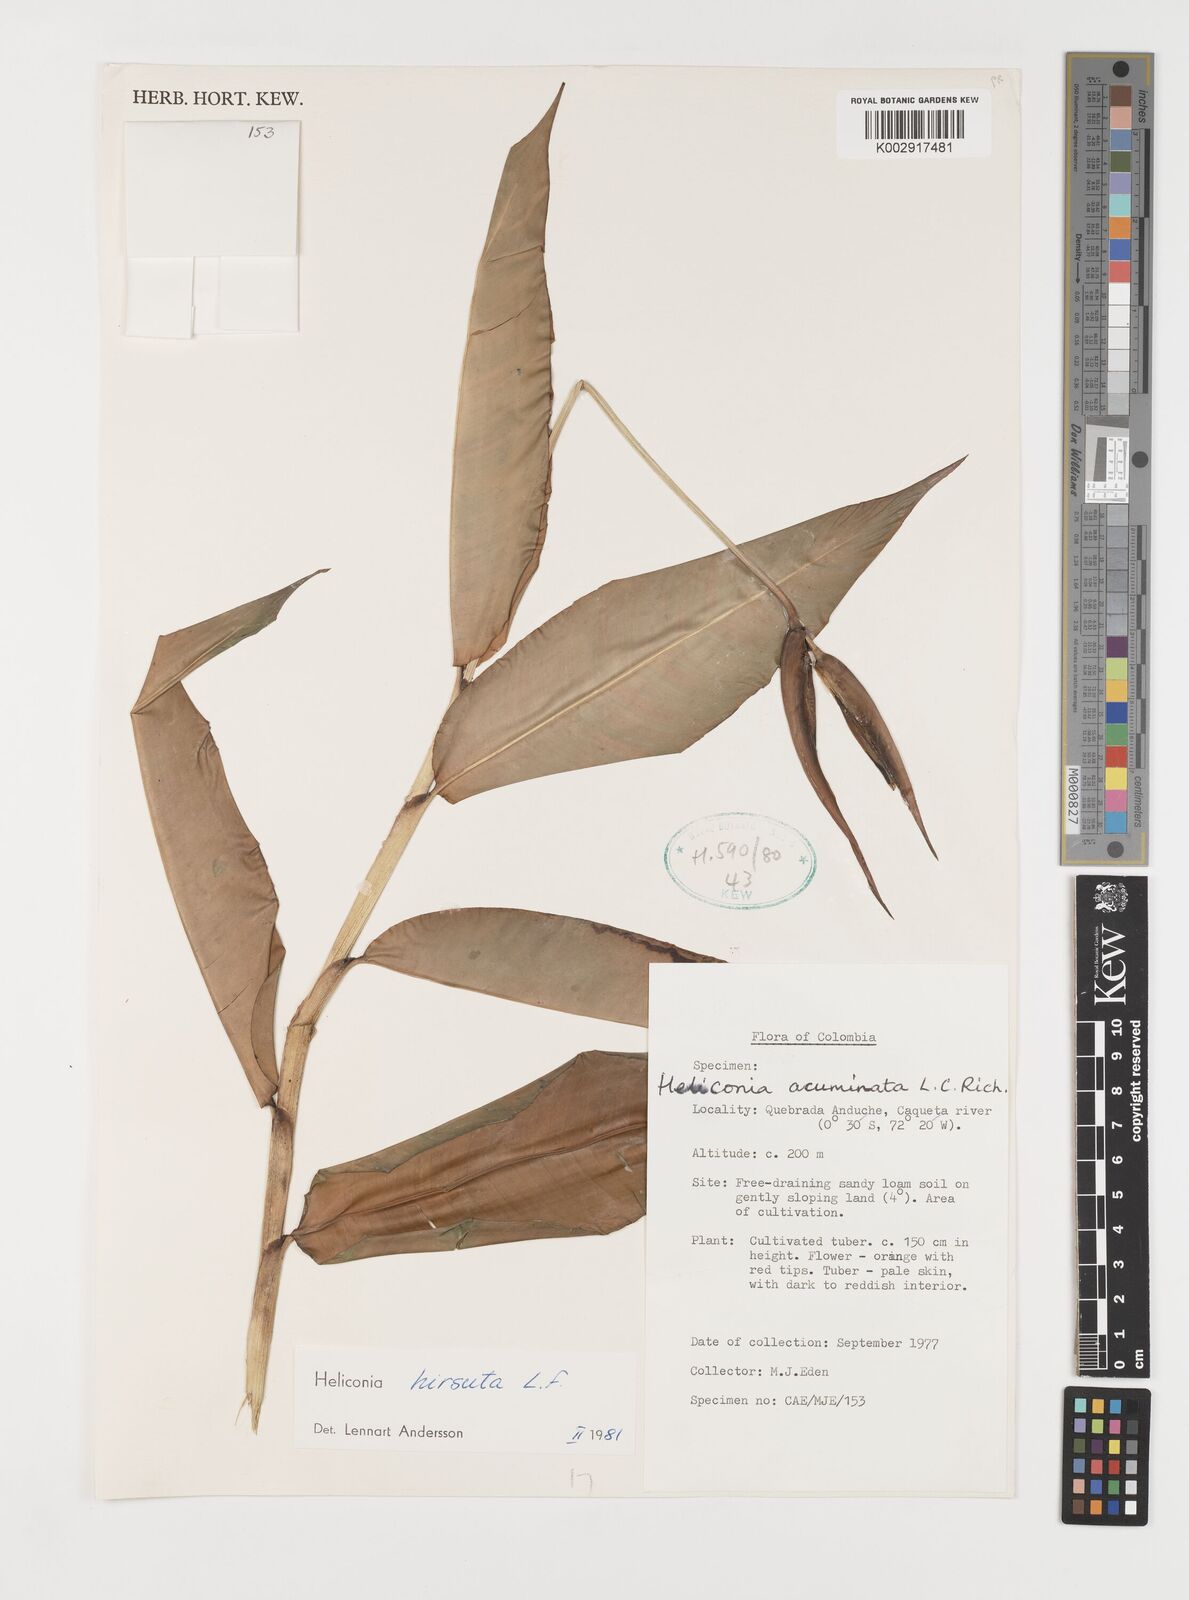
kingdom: Plantae
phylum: Tracheophyta
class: Liliopsida
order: Zingiberales
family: Heliconiaceae
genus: Heliconia
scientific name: Heliconia schiedeana
